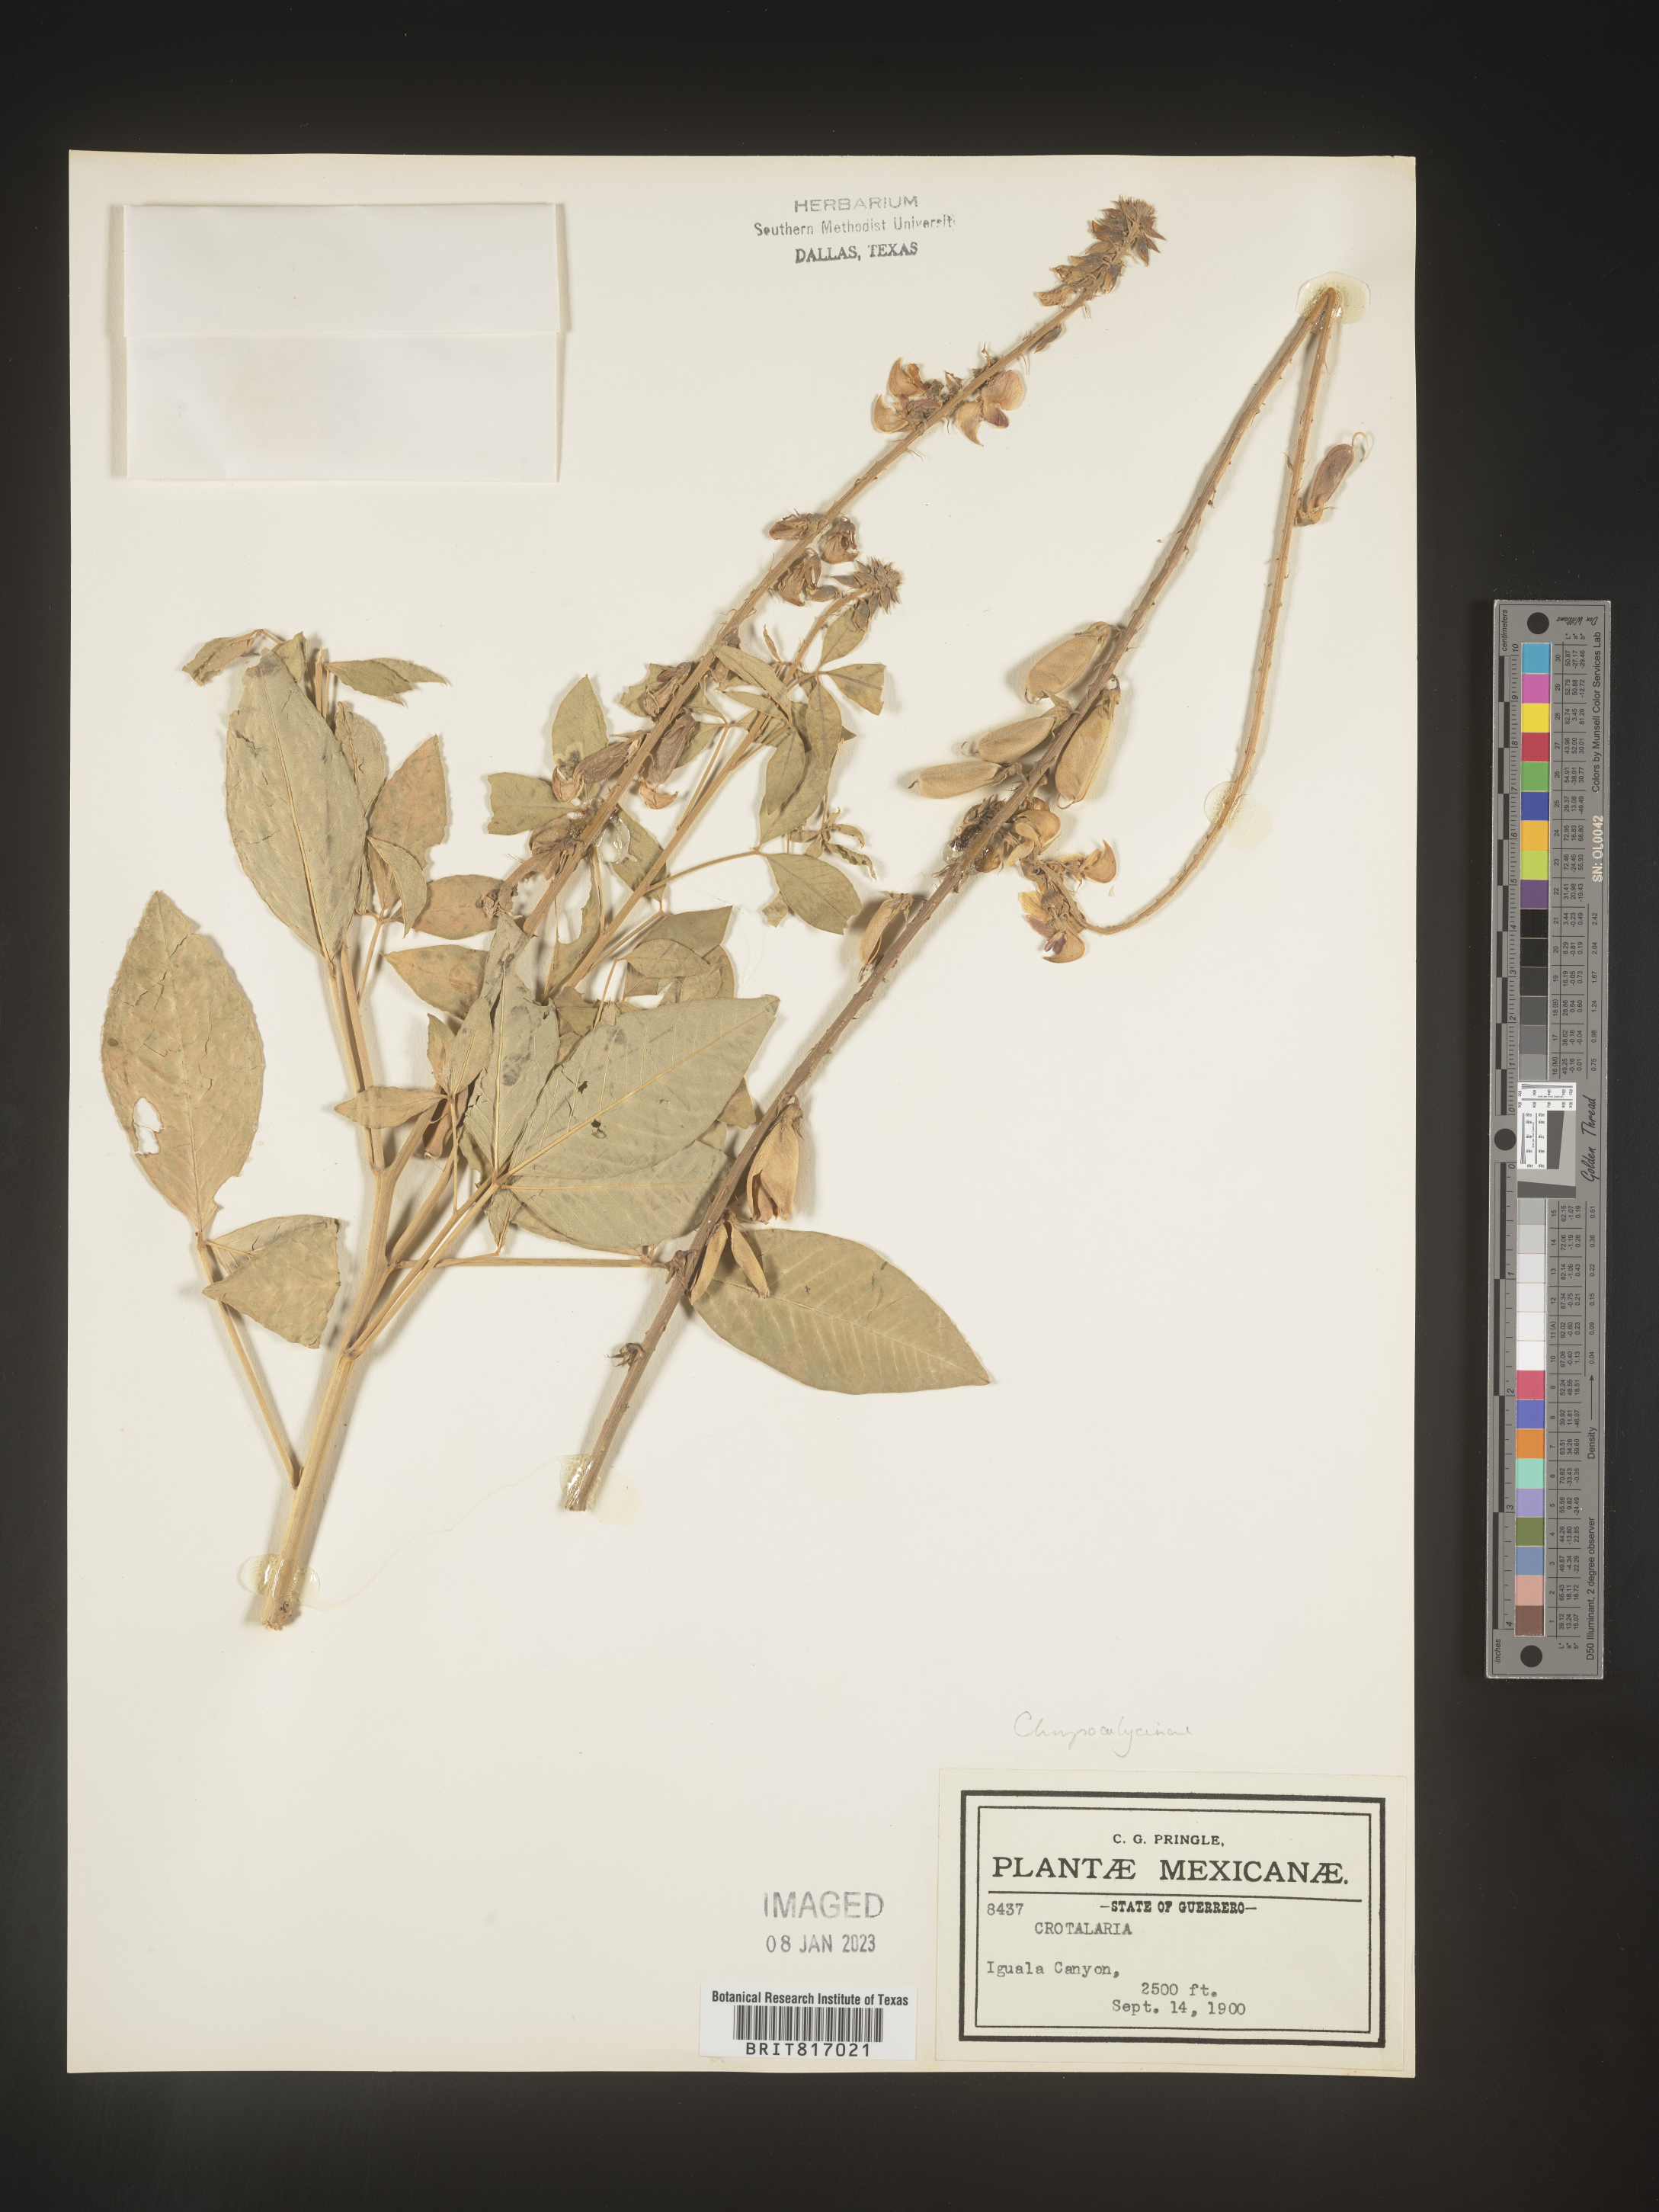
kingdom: Plantae
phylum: Tracheophyta
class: Magnoliopsida
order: Fabales
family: Fabaceae
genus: Crotalaria
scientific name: Crotalaria
